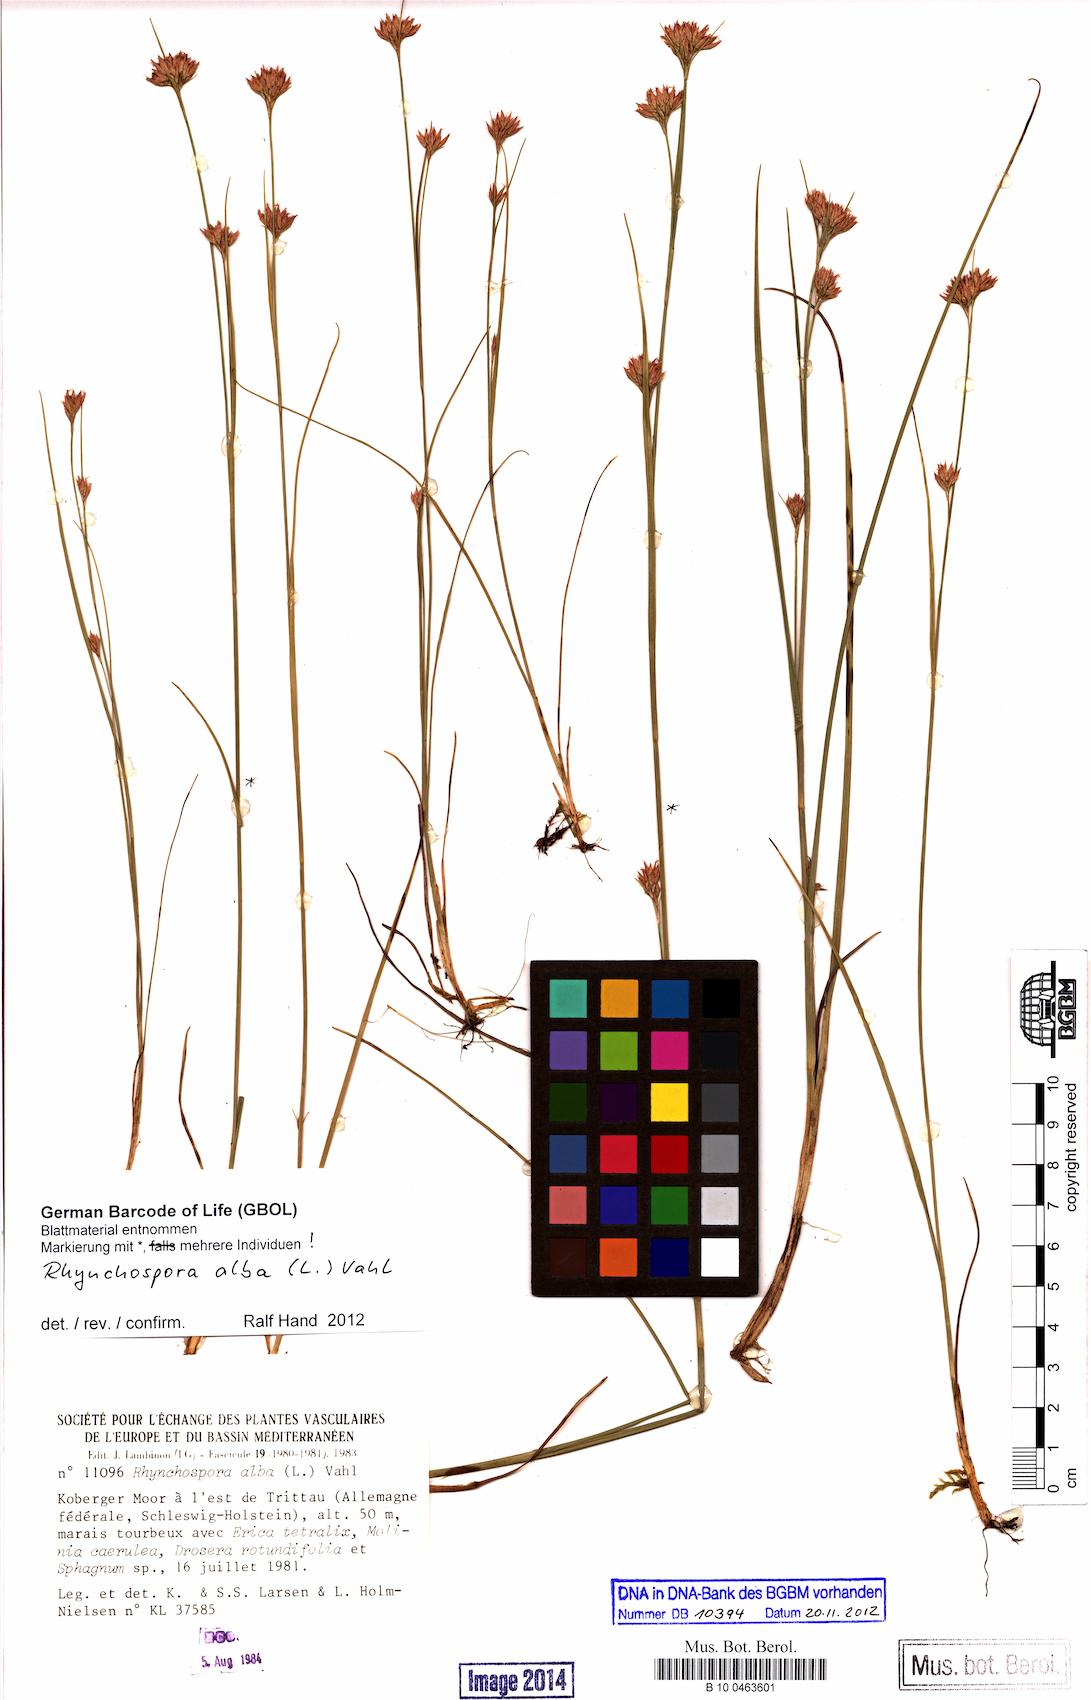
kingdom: Plantae
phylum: Tracheophyta
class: Liliopsida
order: Poales
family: Cyperaceae
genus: Rhynchospora
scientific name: Rhynchospora alba
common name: White beak-sedge
